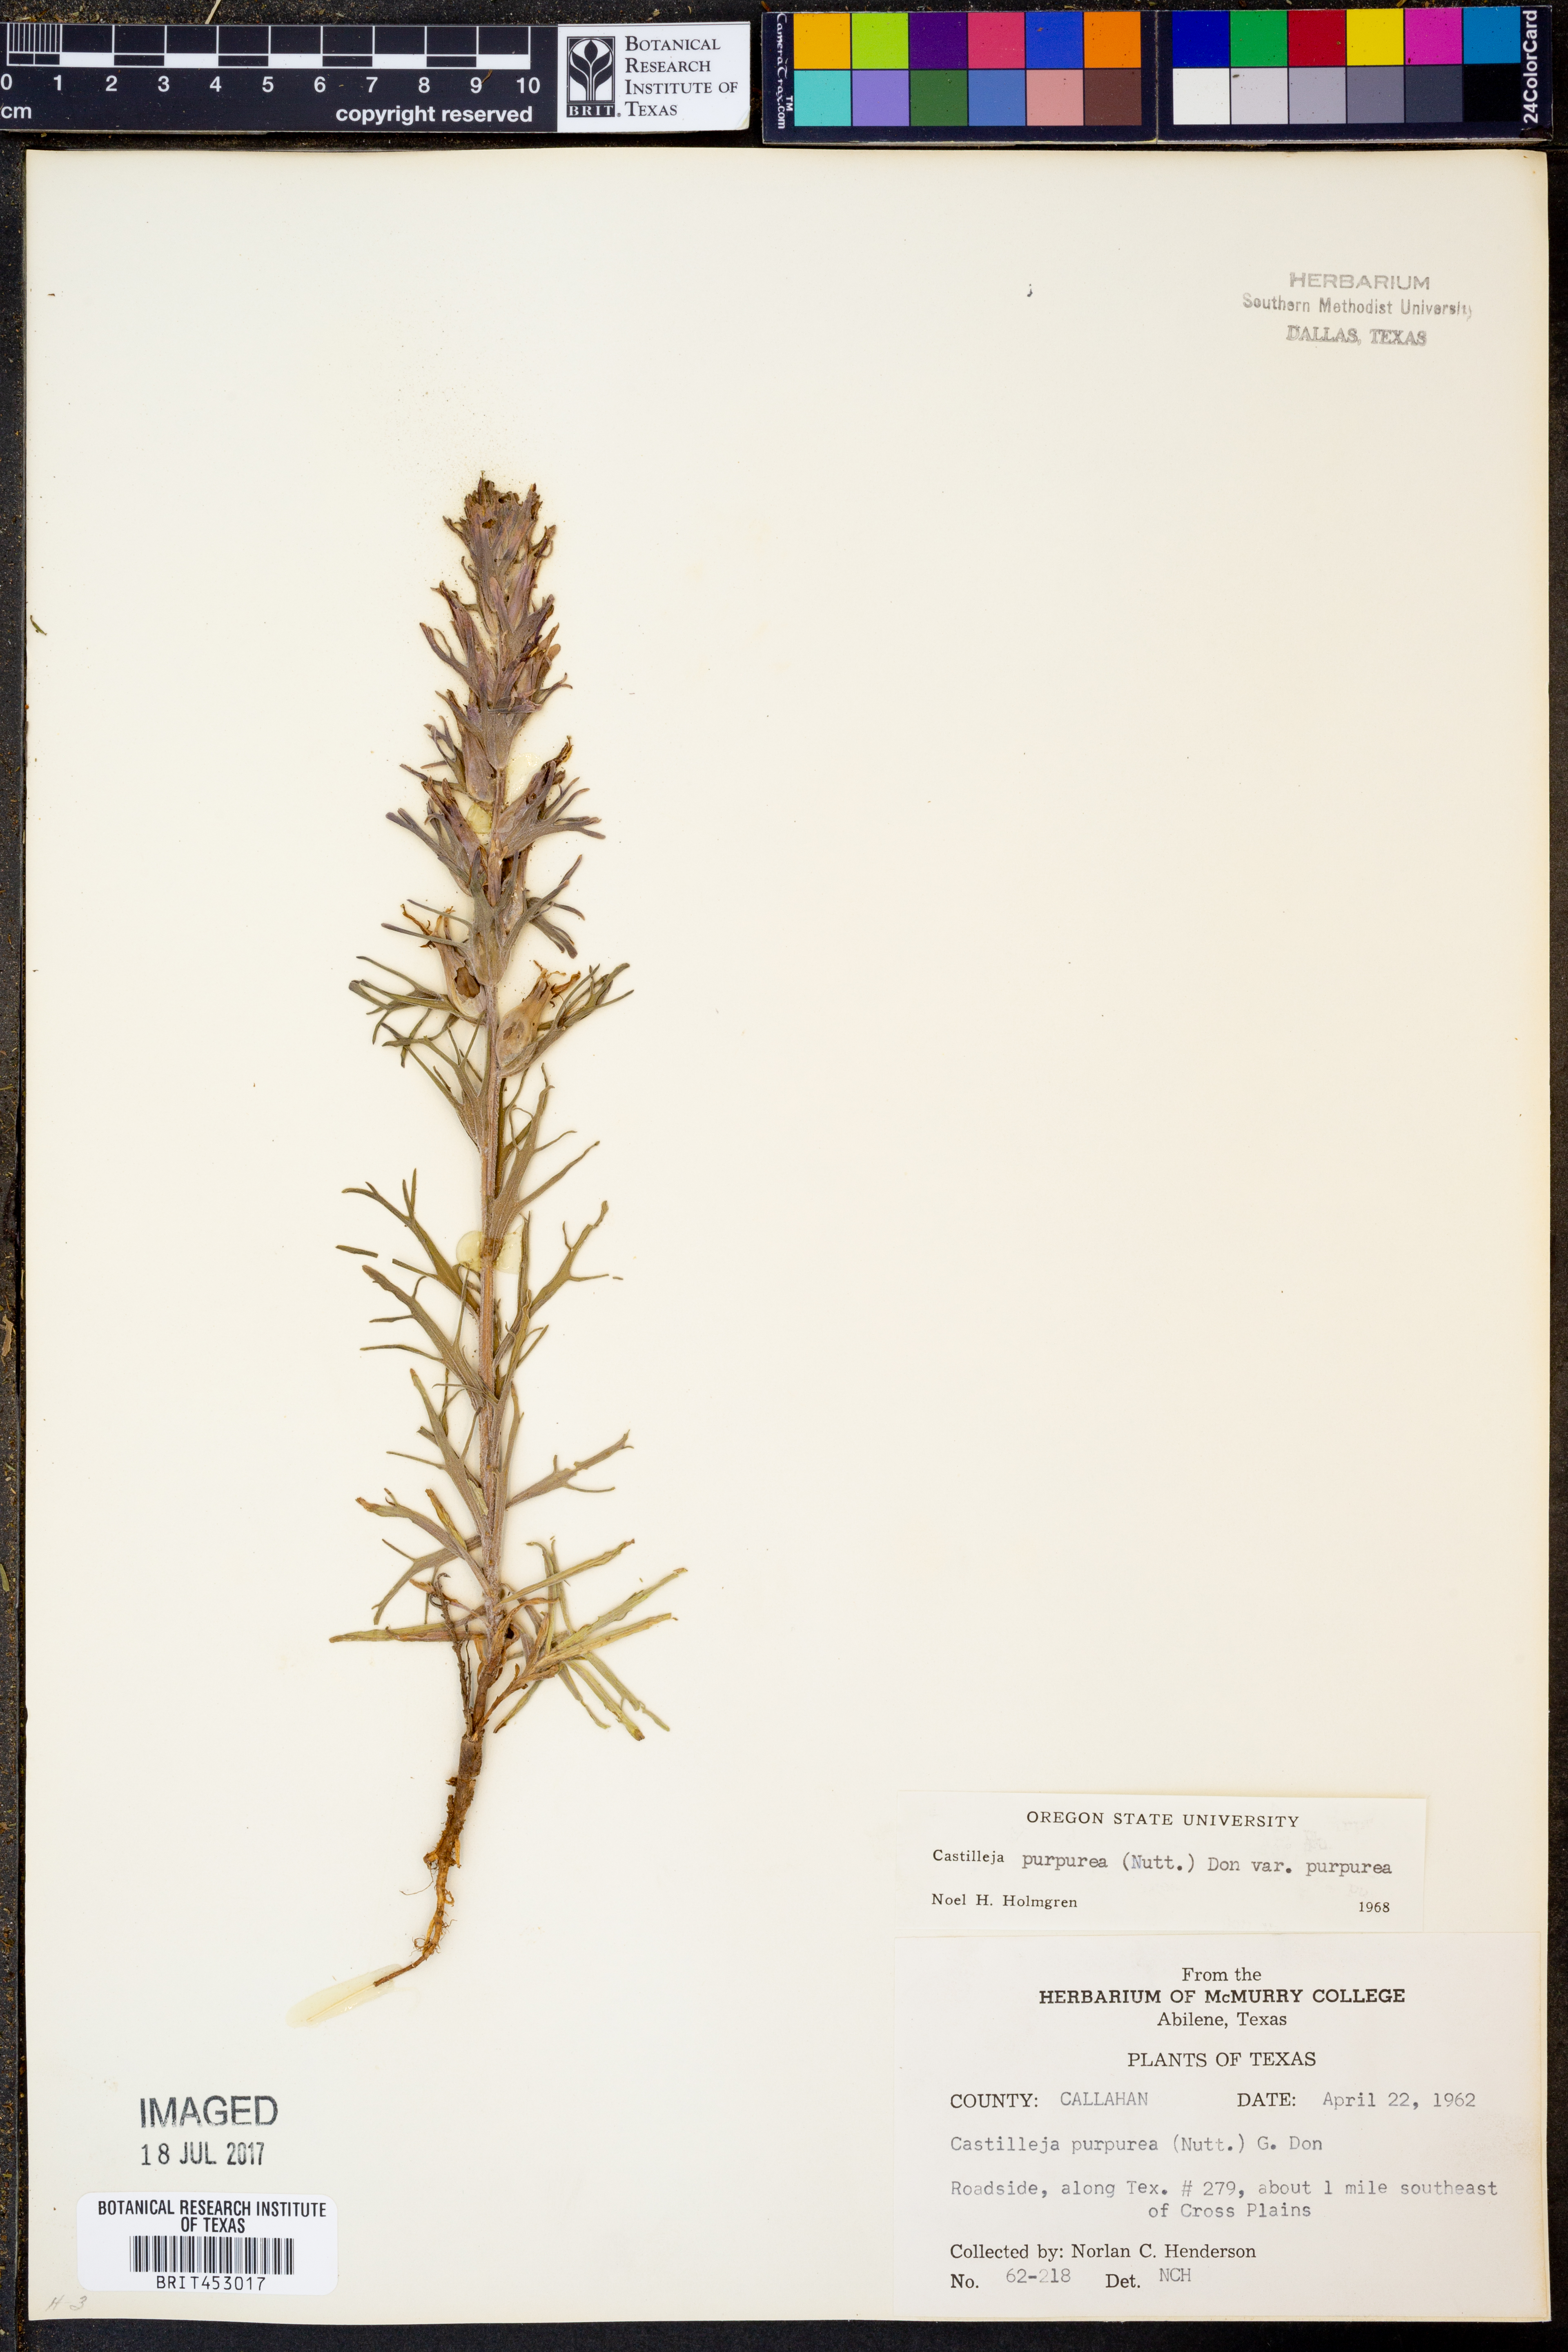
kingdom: Plantae
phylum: Tracheophyta
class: Magnoliopsida
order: Lamiales
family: Orobanchaceae
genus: Castilleja
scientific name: Castilleja purpurea
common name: Plains paintbrush
